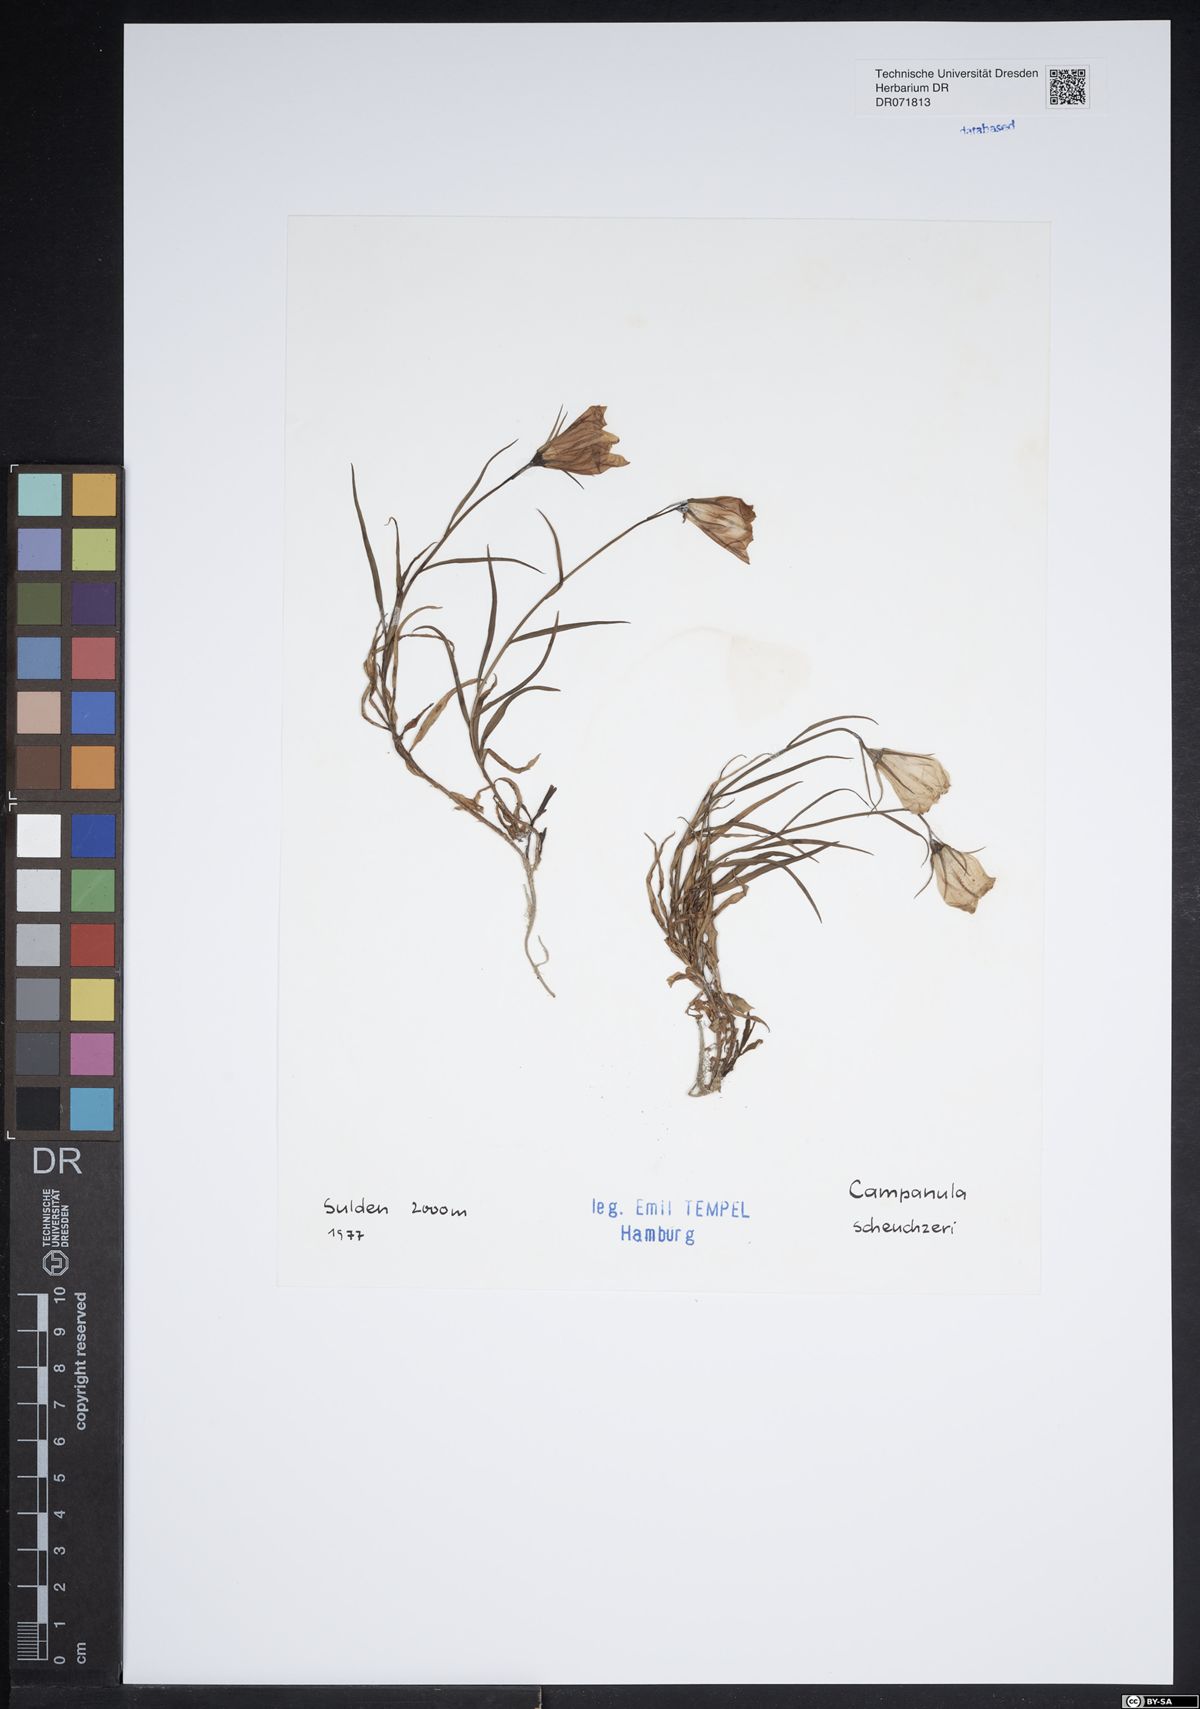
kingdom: Plantae
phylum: Tracheophyta
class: Magnoliopsida
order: Asterales
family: Campanulaceae
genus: Campanula
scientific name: Campanula scheuchzeri
